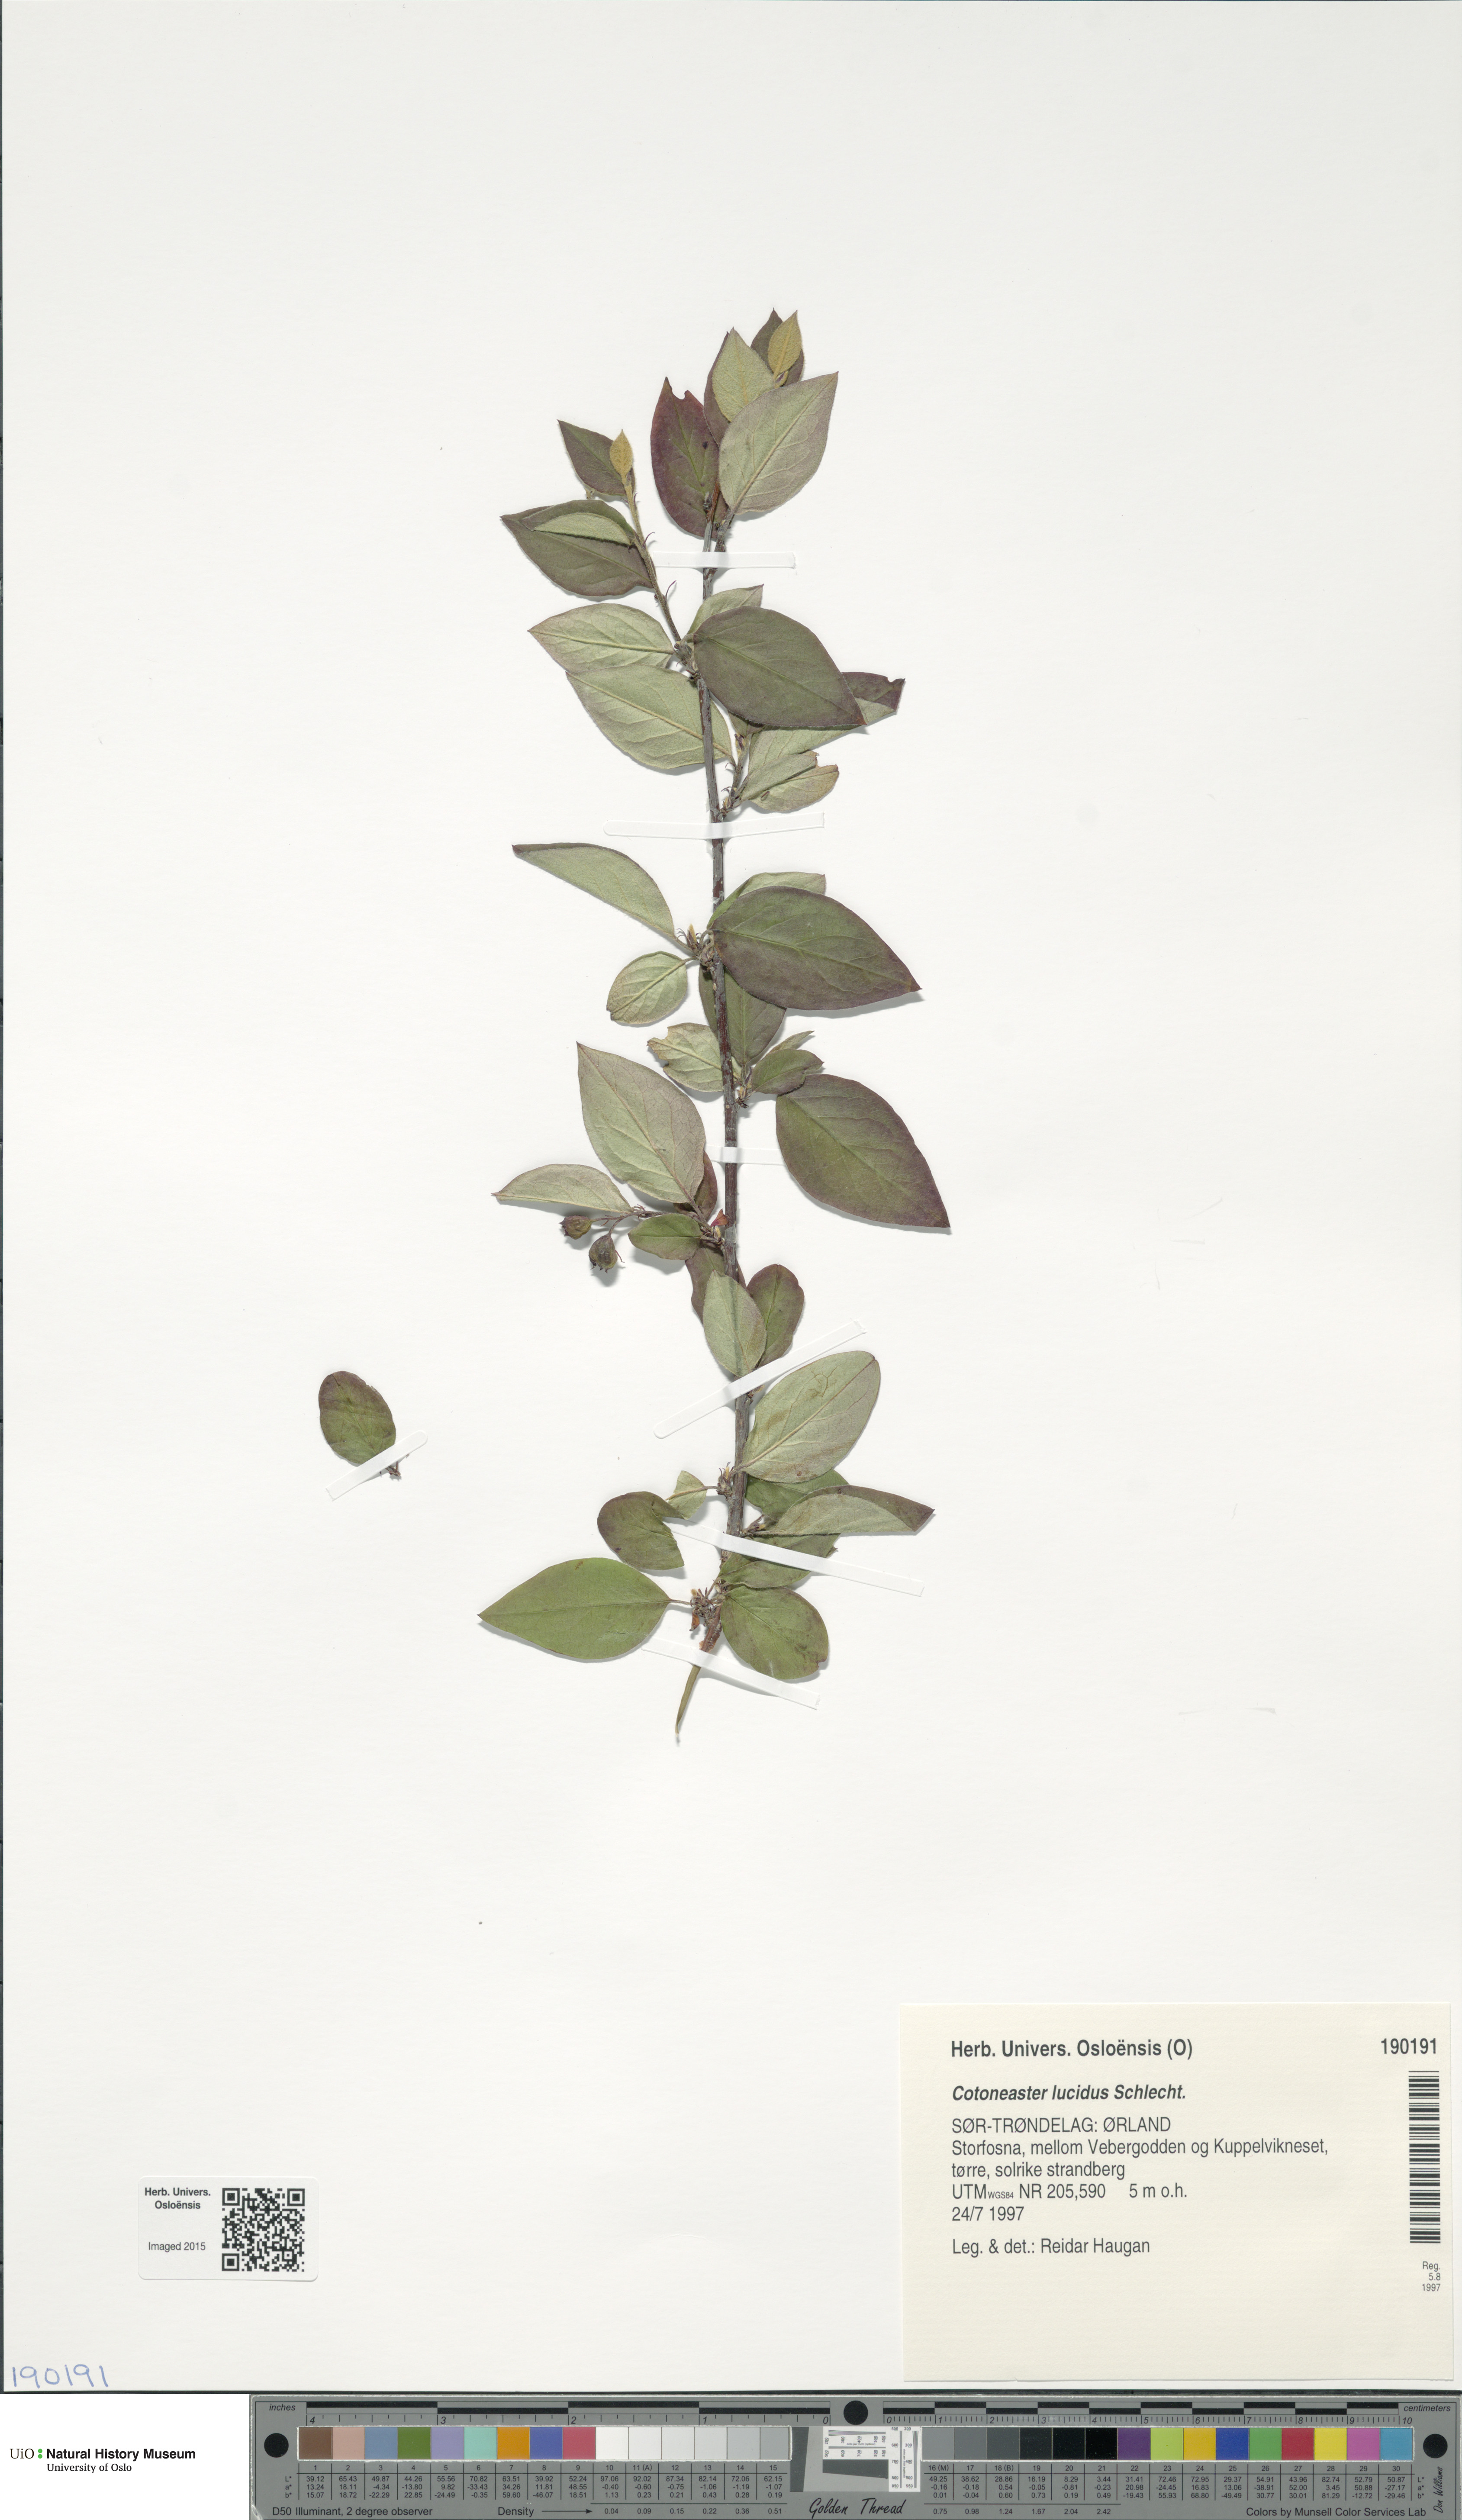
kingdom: Plantae
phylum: Tracheophyta
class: Magnoliopsida
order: Rosales
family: Rosaceae
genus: Cotoneaster
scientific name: Cotoneaster acutifolius
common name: Peking cotoneaster
